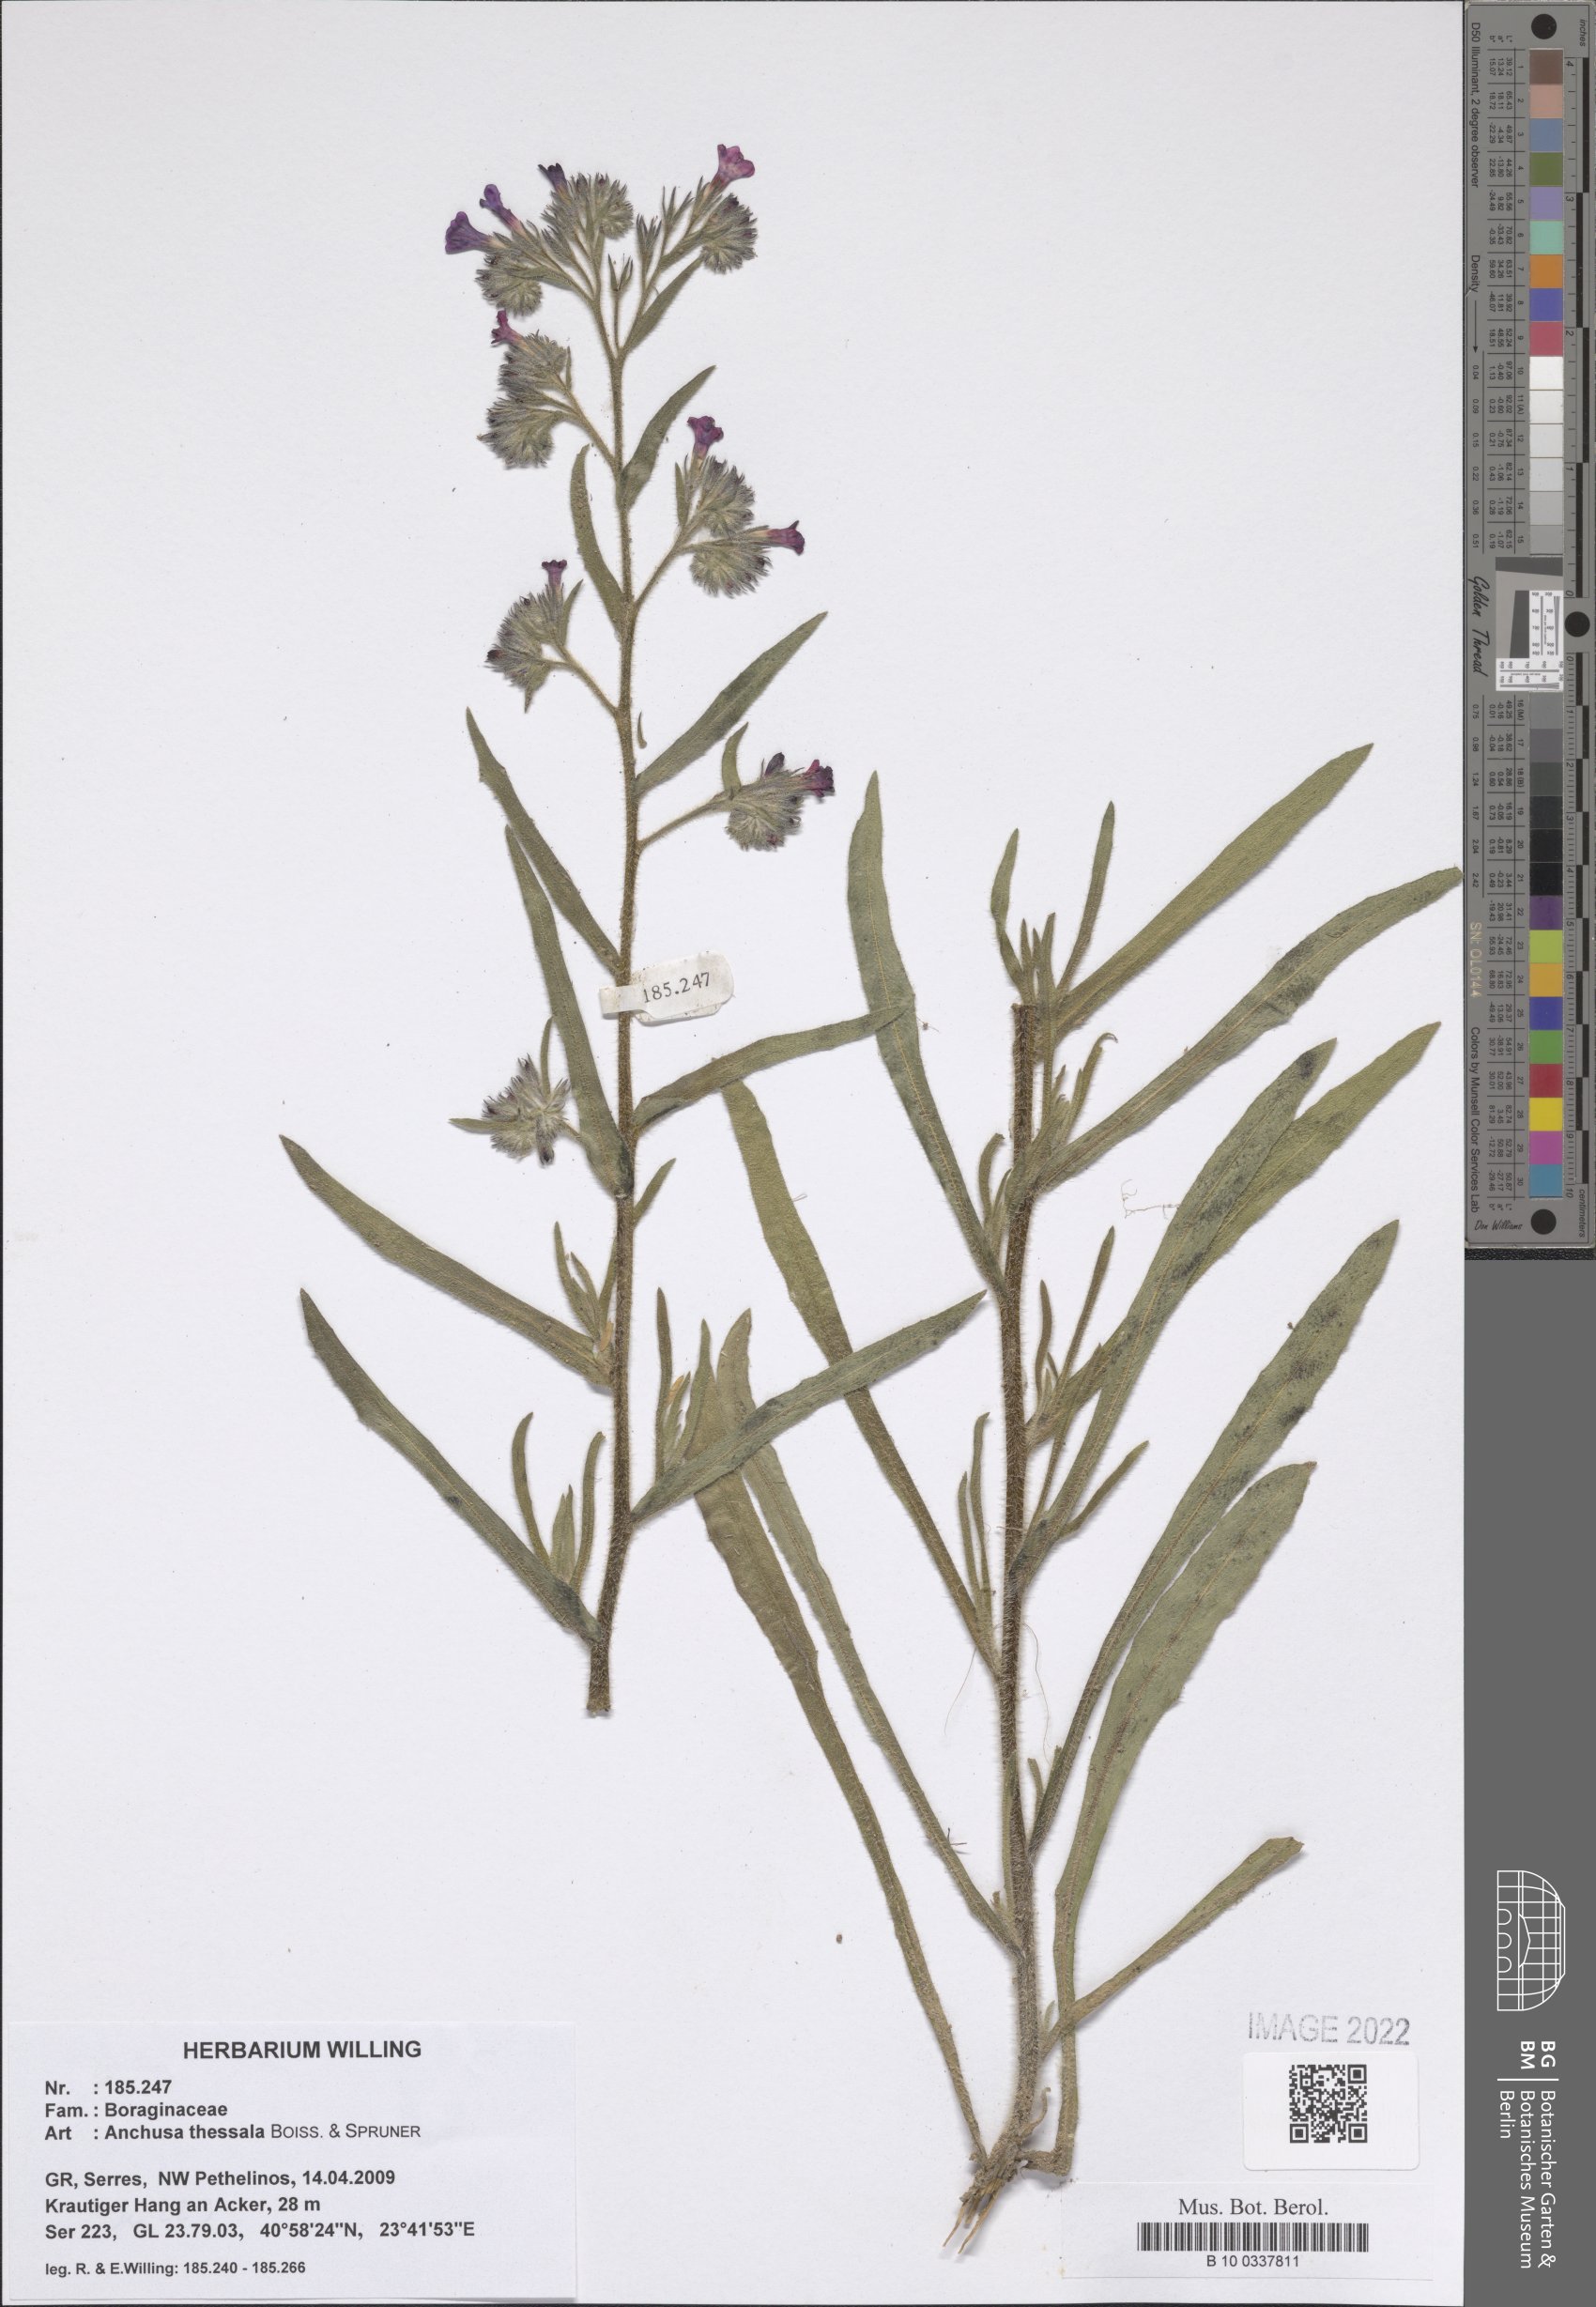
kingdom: Plantae
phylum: Tracheophyta
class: Magnoliopsida
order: Boraginales
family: Boraginaceae
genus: Anchusa
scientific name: Anchusa thessala
